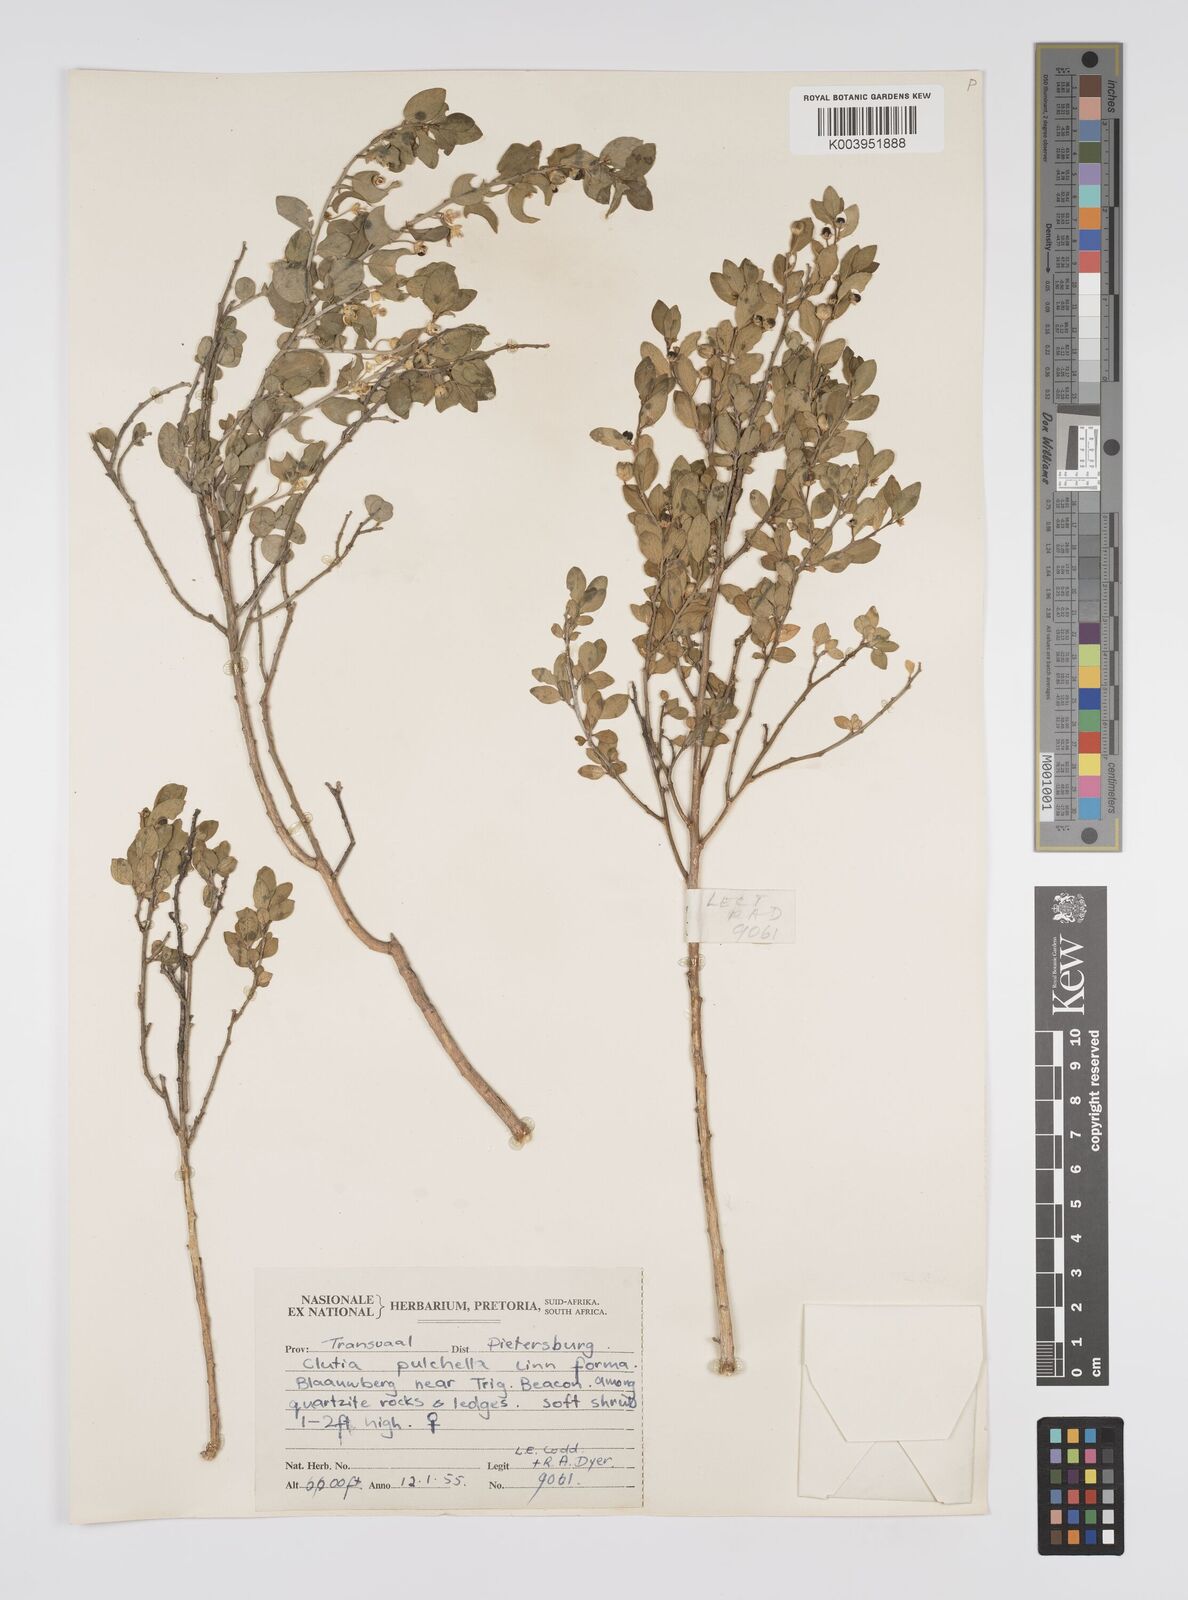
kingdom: Plantae
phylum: Tracheophyta
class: Magnoliopsida
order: Malpighiales
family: Peraceae
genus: Clutia
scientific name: Clutia galpinii
